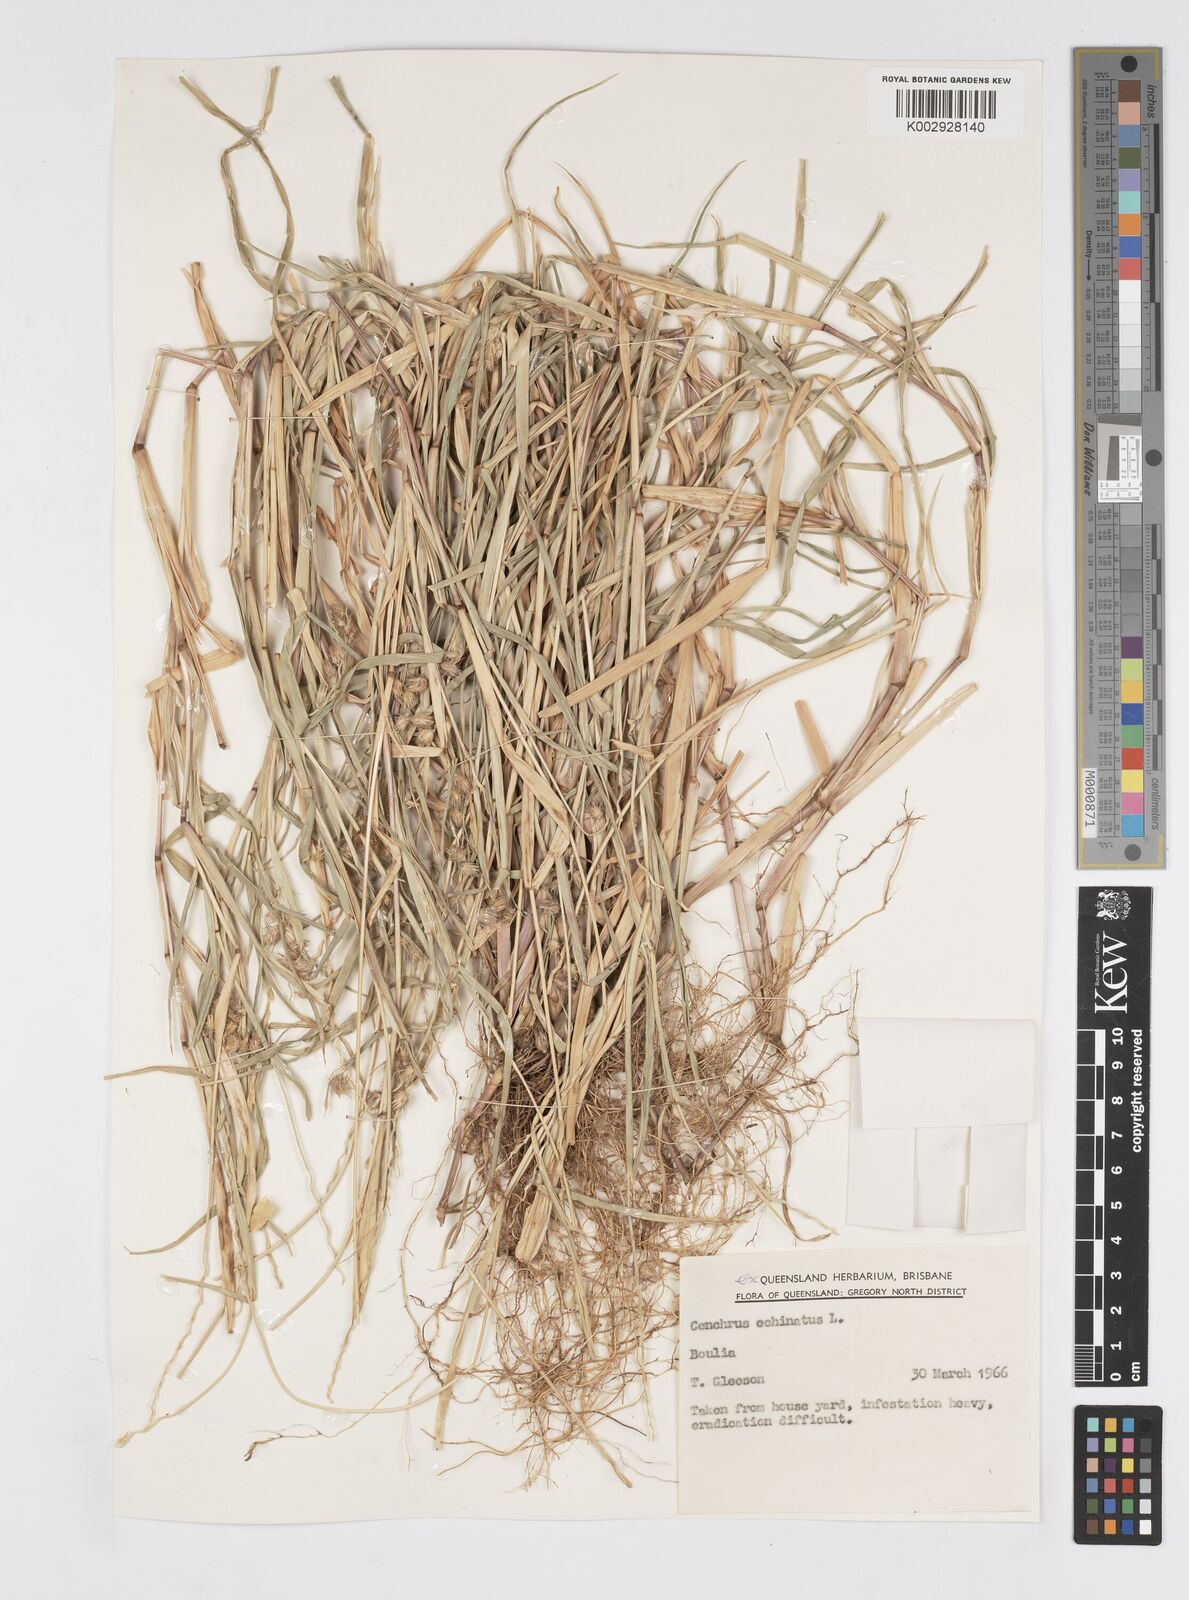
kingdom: Plantae
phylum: Tracheophyta
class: Liliopsida
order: Poales
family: Poaceae
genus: Cenchrus
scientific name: Cenchrus echinatus
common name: Southern sandbur
